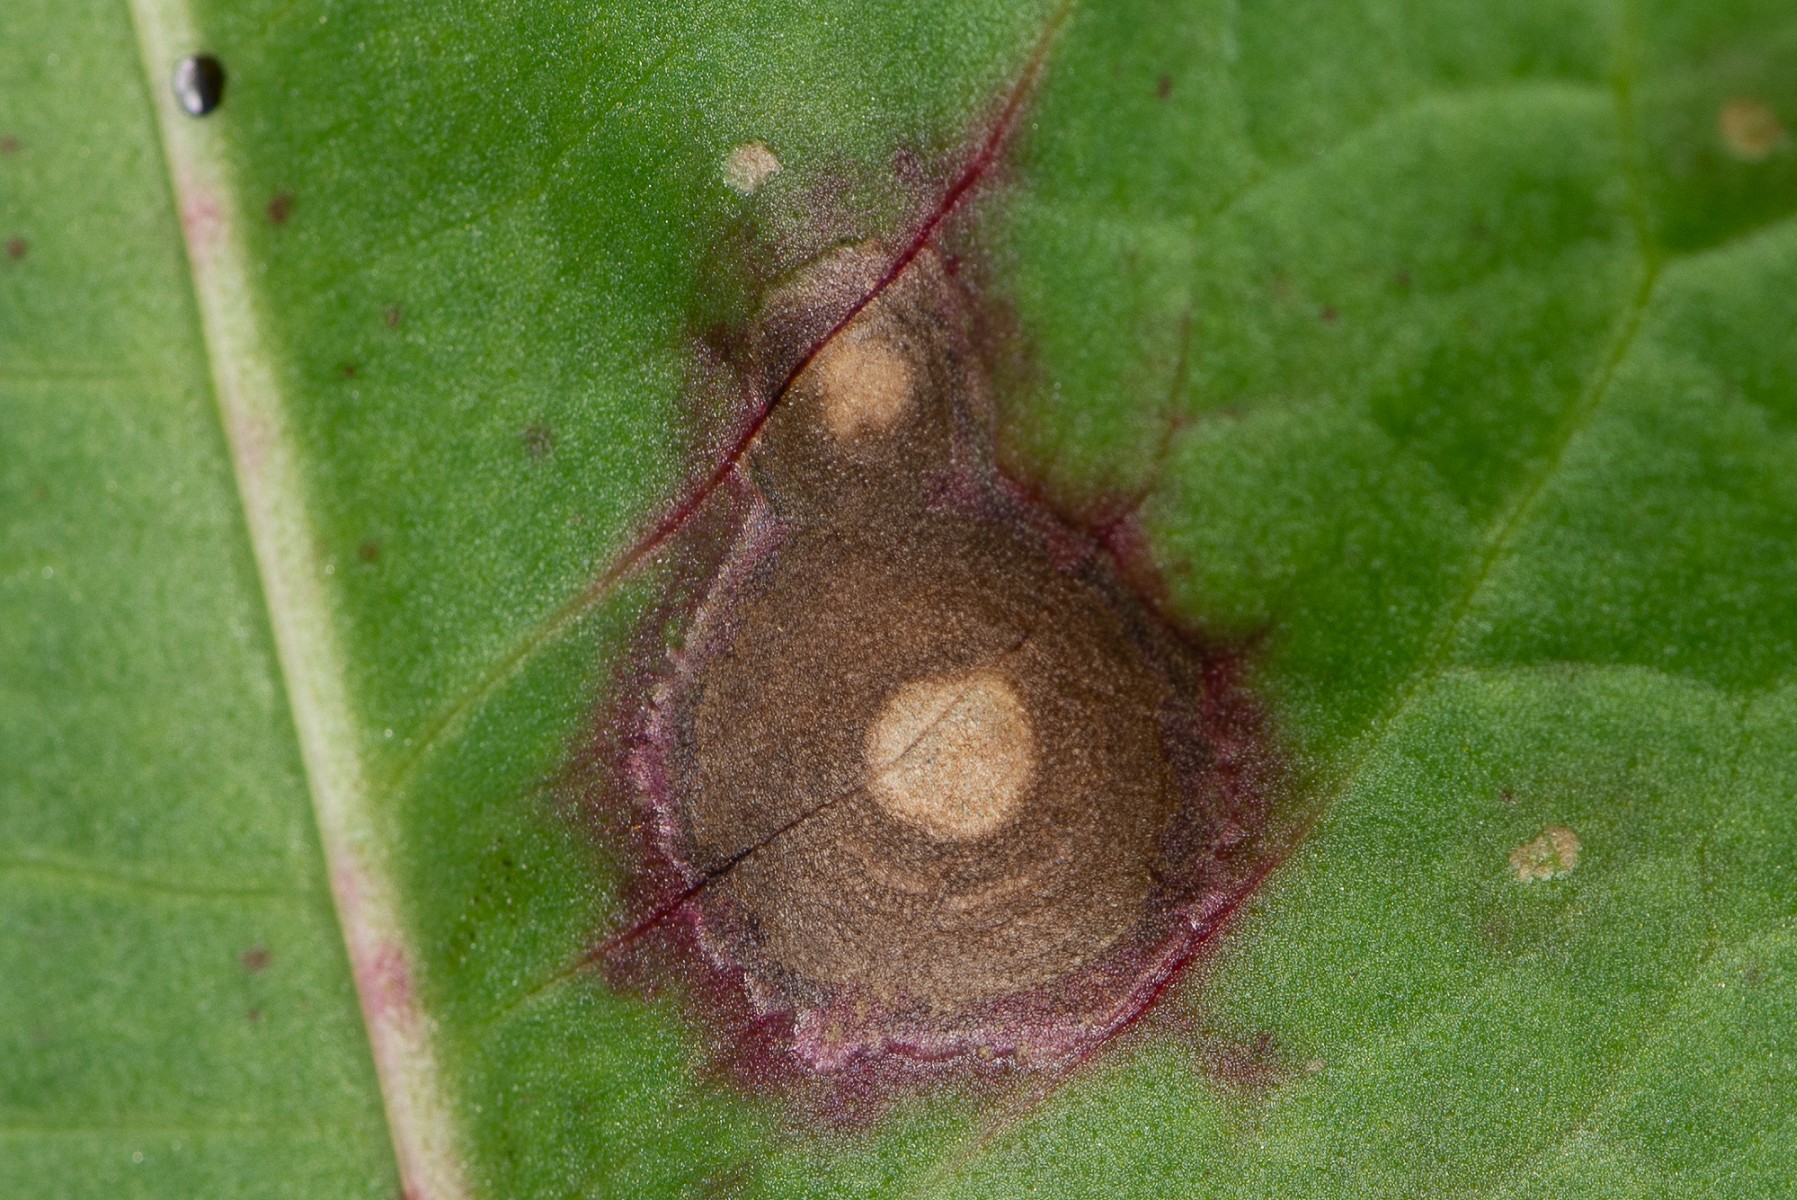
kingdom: Fungi
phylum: Ascomycota
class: Dothideomycetes
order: Capnodiales
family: Mycosphaerellaceae
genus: Ramularia
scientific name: Ramularia
